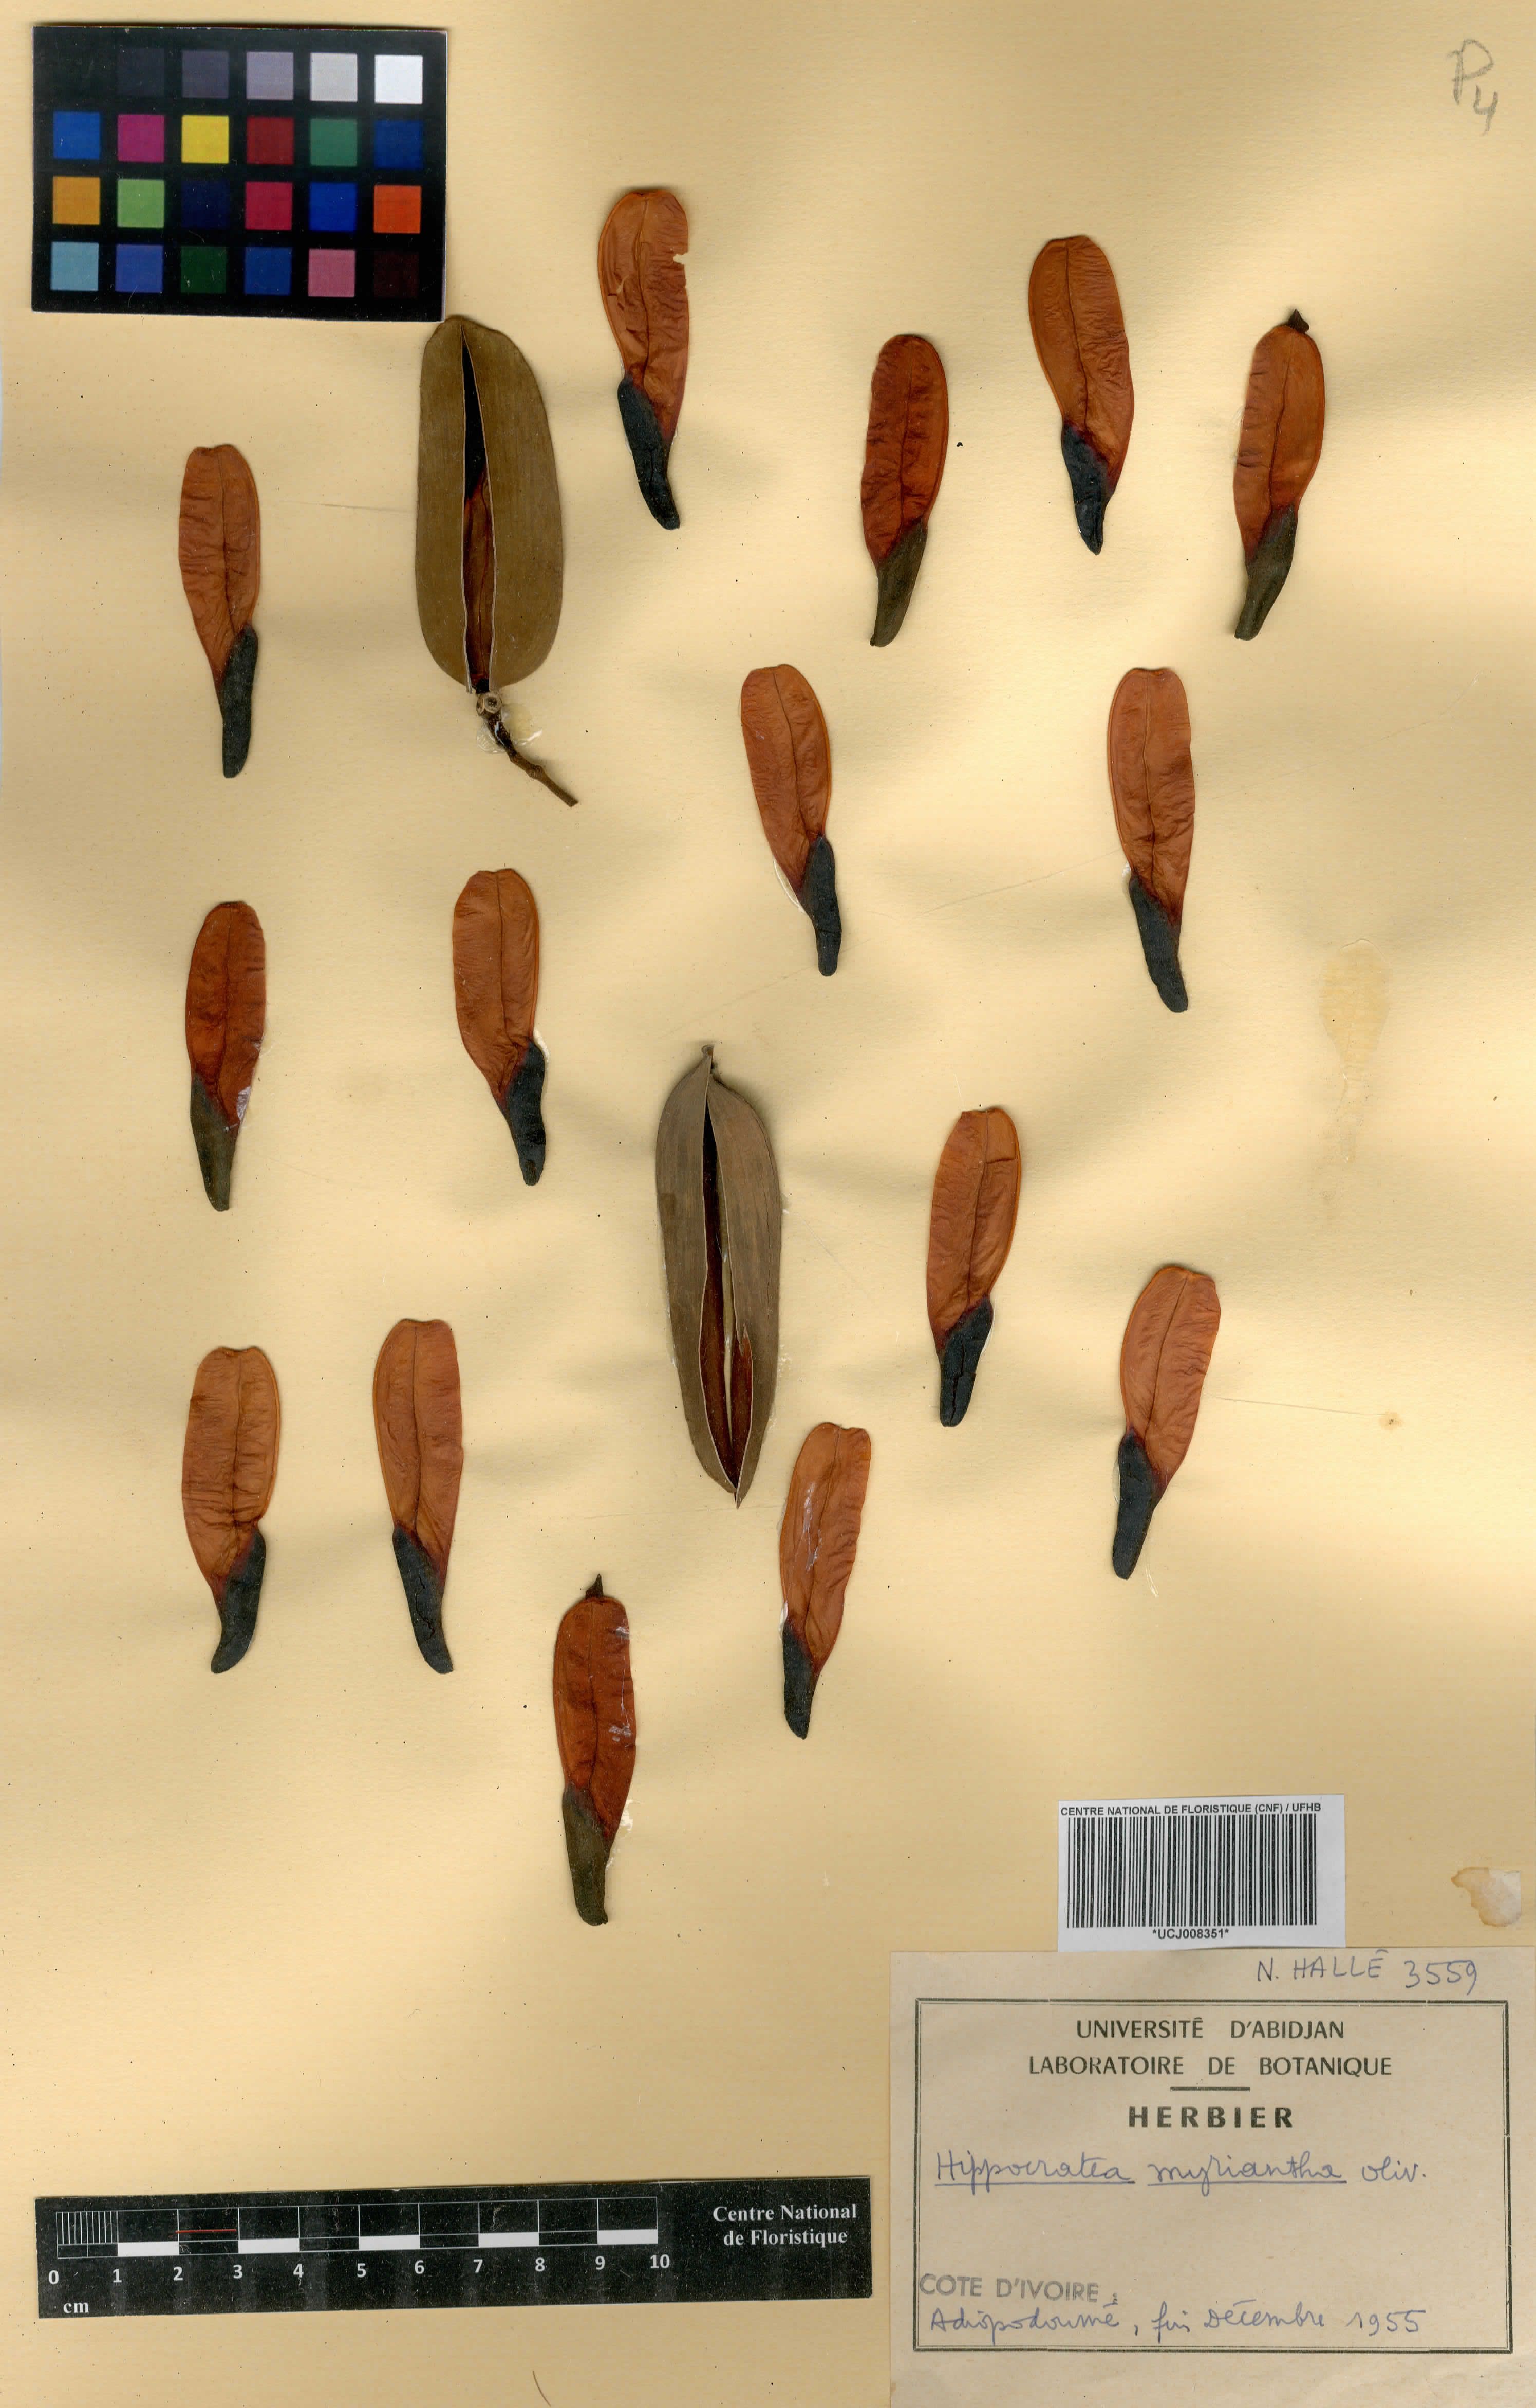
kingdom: Plantae
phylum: Tracheophyta
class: Magnoliopsida
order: Celastrales
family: Celastraceae
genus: Hippocratea
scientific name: Hippocratea myriantha
